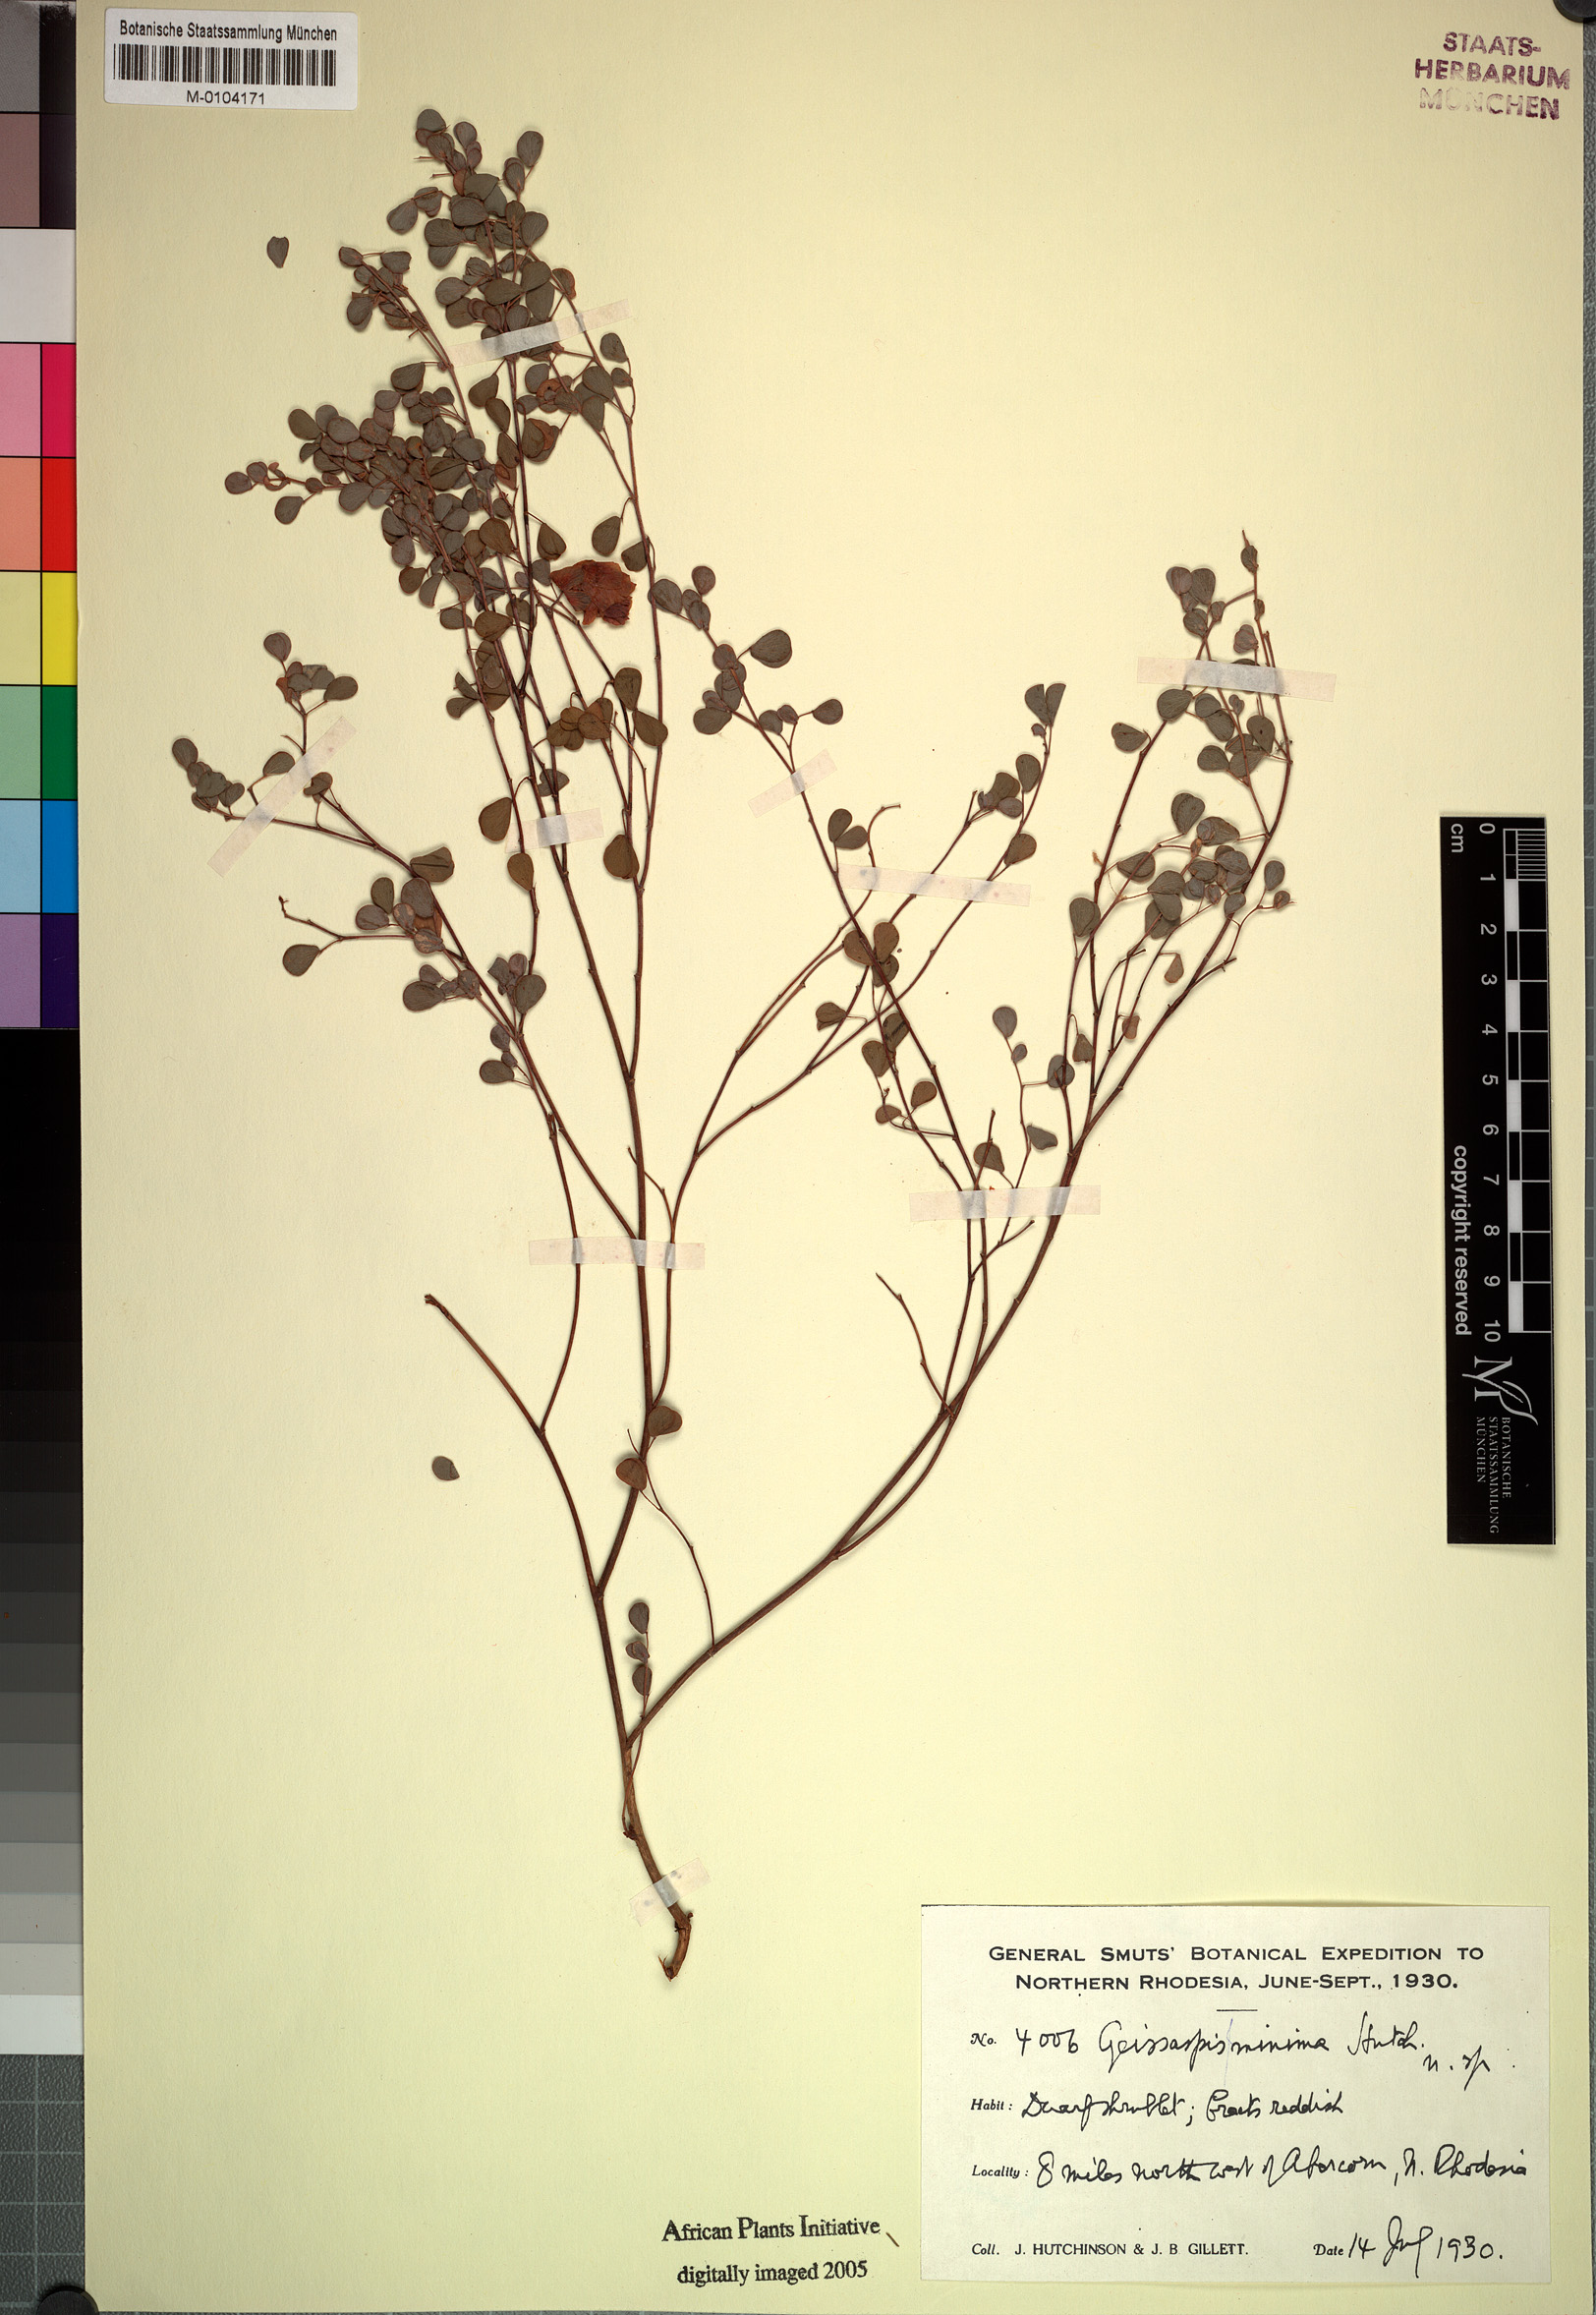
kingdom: Plantae
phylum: Tracheophyta
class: Magnoliopsida
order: Fabales
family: Fabaceae
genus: Humularia
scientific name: Humularia minima
